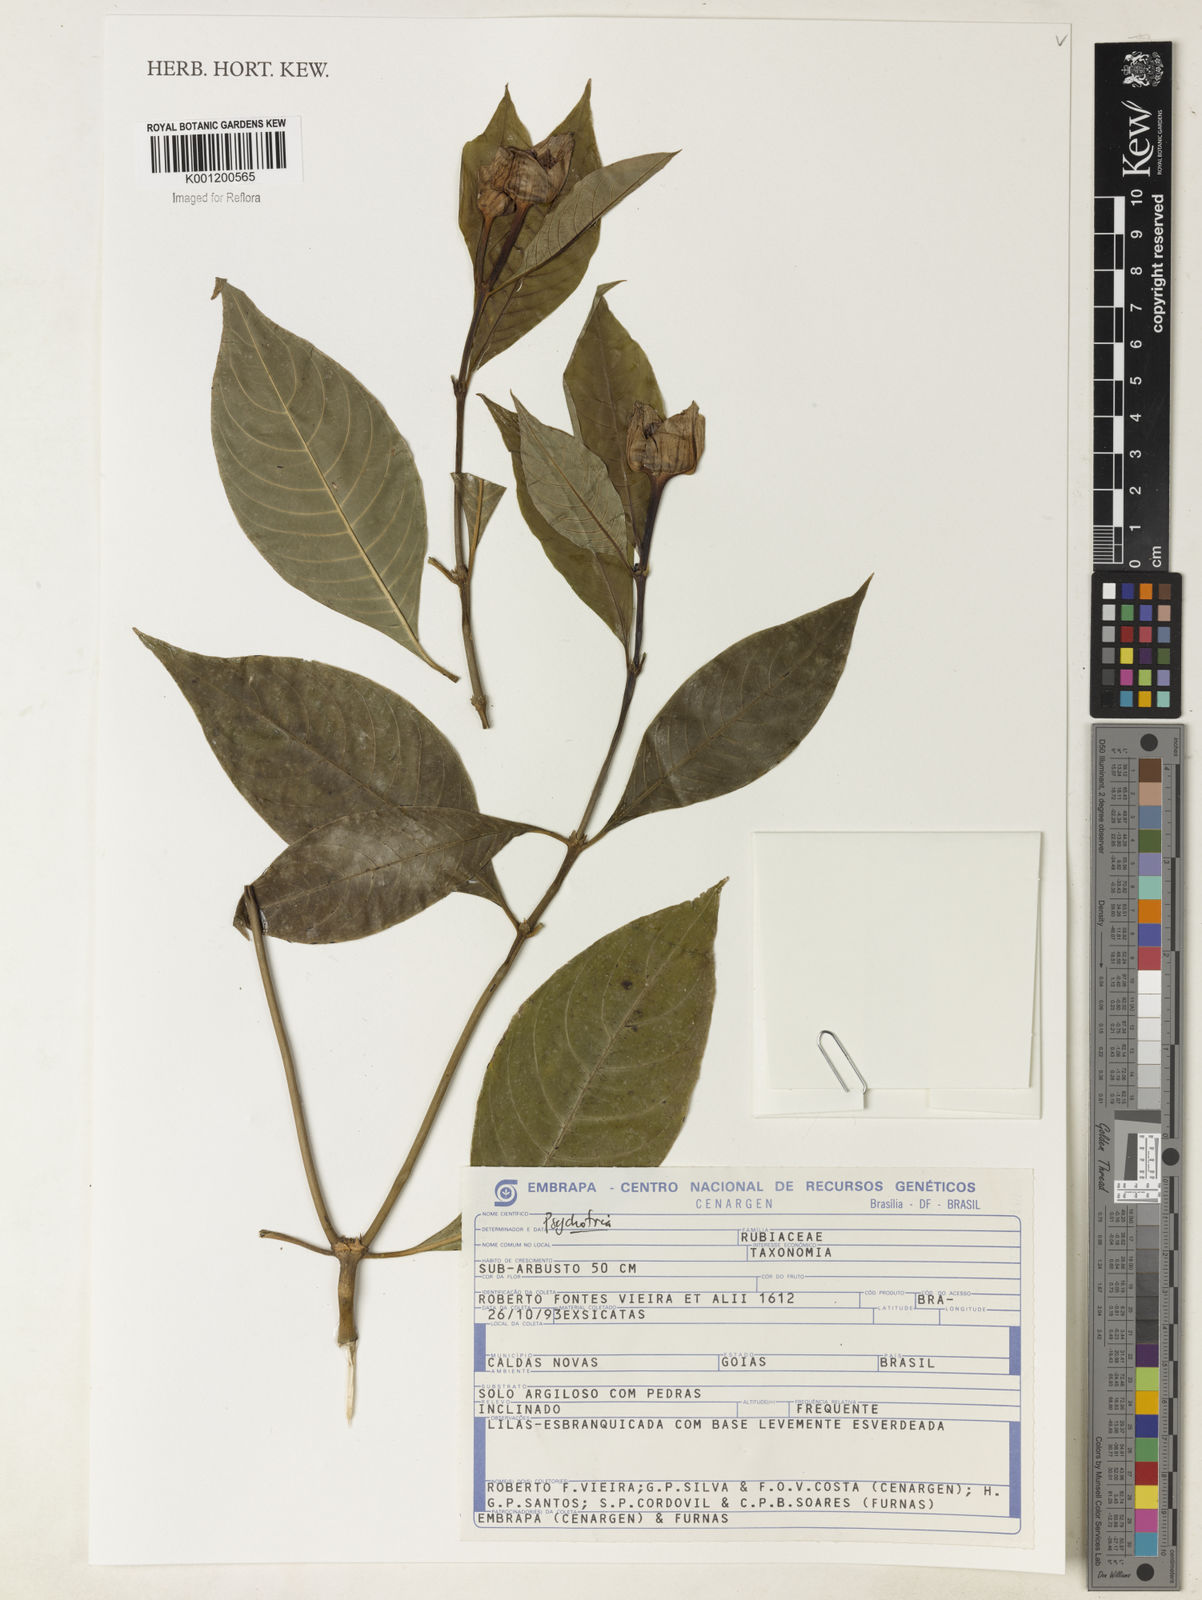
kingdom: Plantae
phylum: Tracheophyta
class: Magnoliopsida
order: Gentianales
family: Rubiaceae
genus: Psychotria
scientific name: Psychotria
